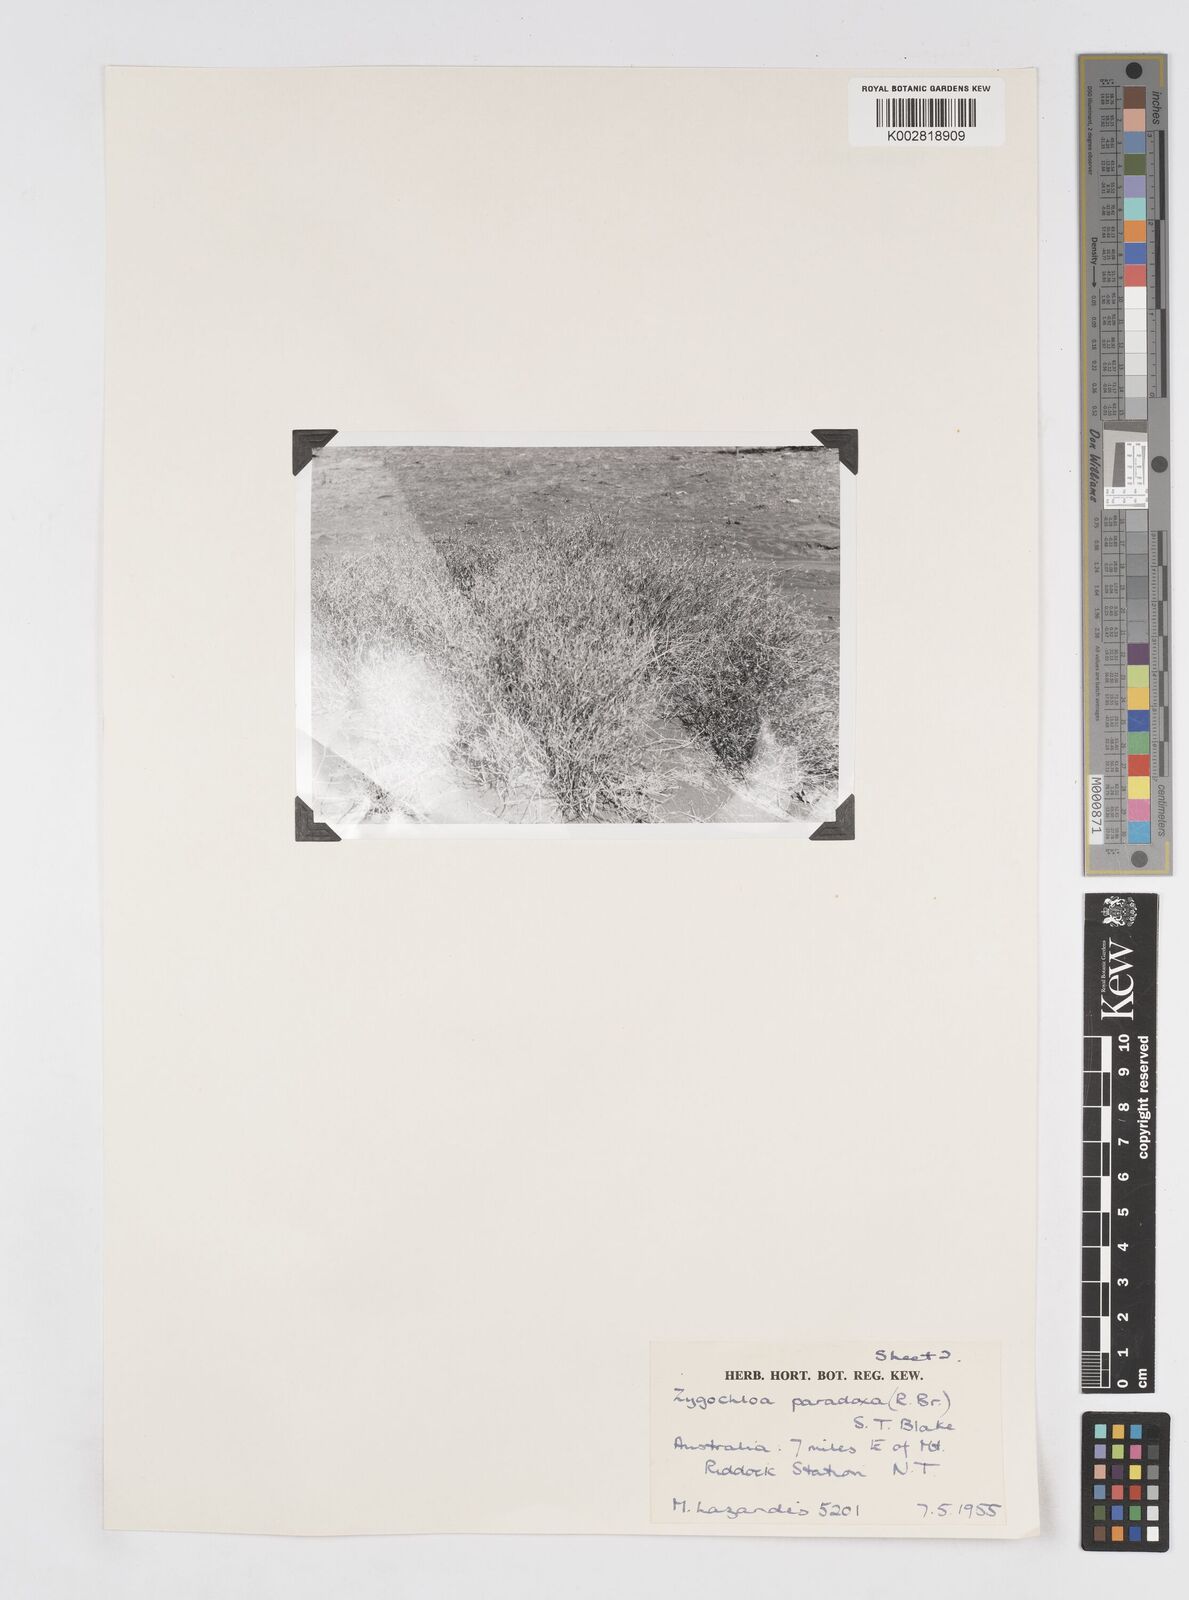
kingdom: Plantae
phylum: Tracheophyta
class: Liliopsida
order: Poales
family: Poaceae
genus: Zygochloa
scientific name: Zygochloa paradoxa
